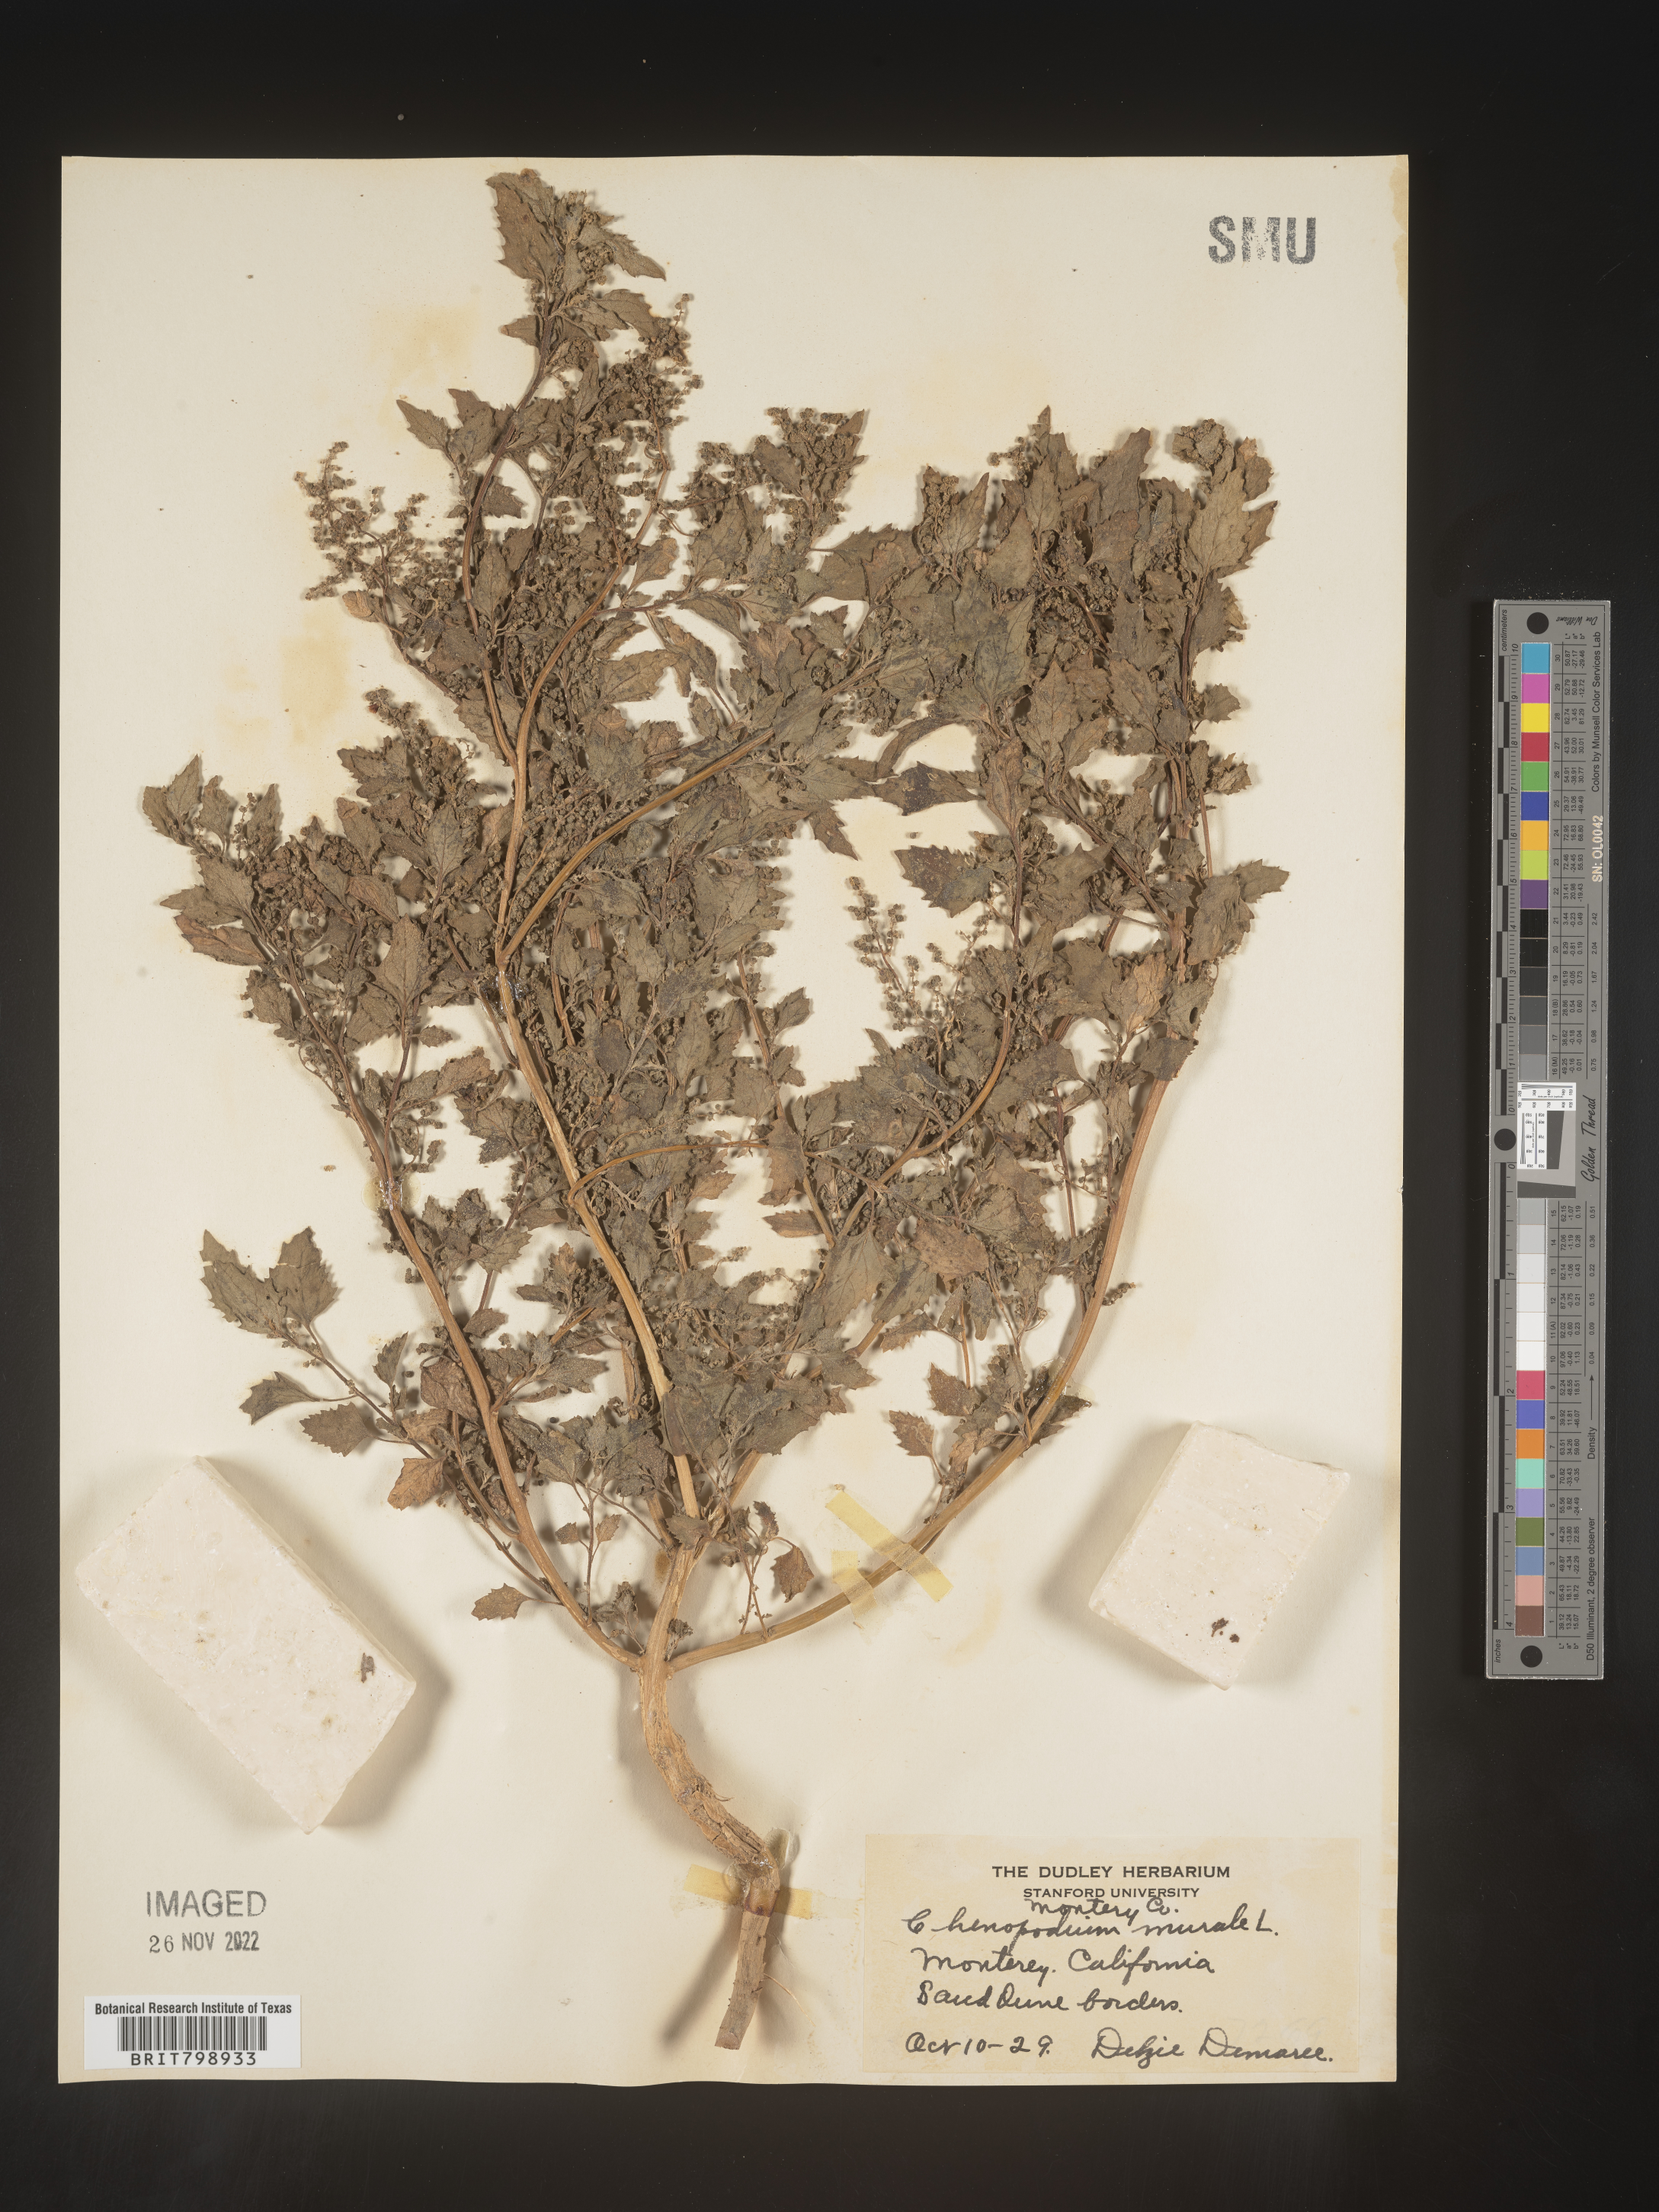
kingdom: Plantae
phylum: Tracheophyta
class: Magnoliopsida
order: Caryophyllales
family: Amaranthaceae
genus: Chenopodiastrum
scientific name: Chenopodiastrum murale
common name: Sowbane
